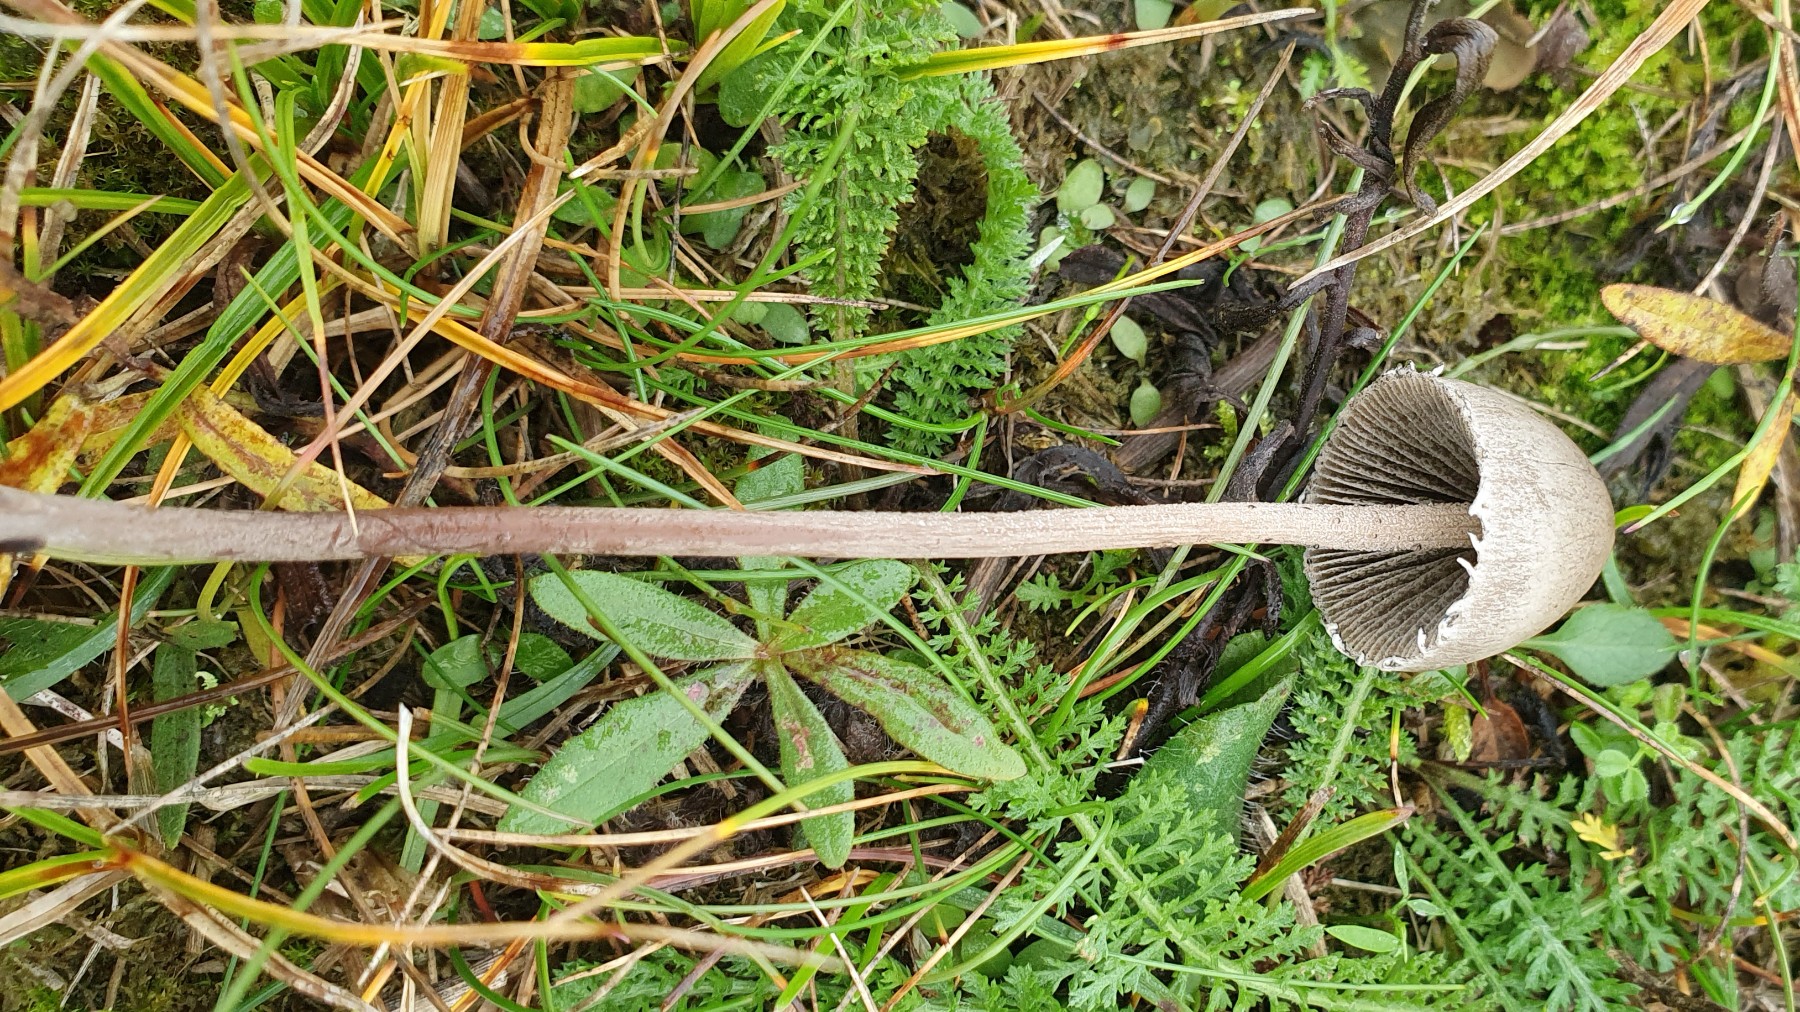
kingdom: Fungi
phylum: Basidiomycota
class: Agaricomycetes
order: Agaricales
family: Bolbitiaceae
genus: Panaeolus
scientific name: Panaeolus papilionaceus
